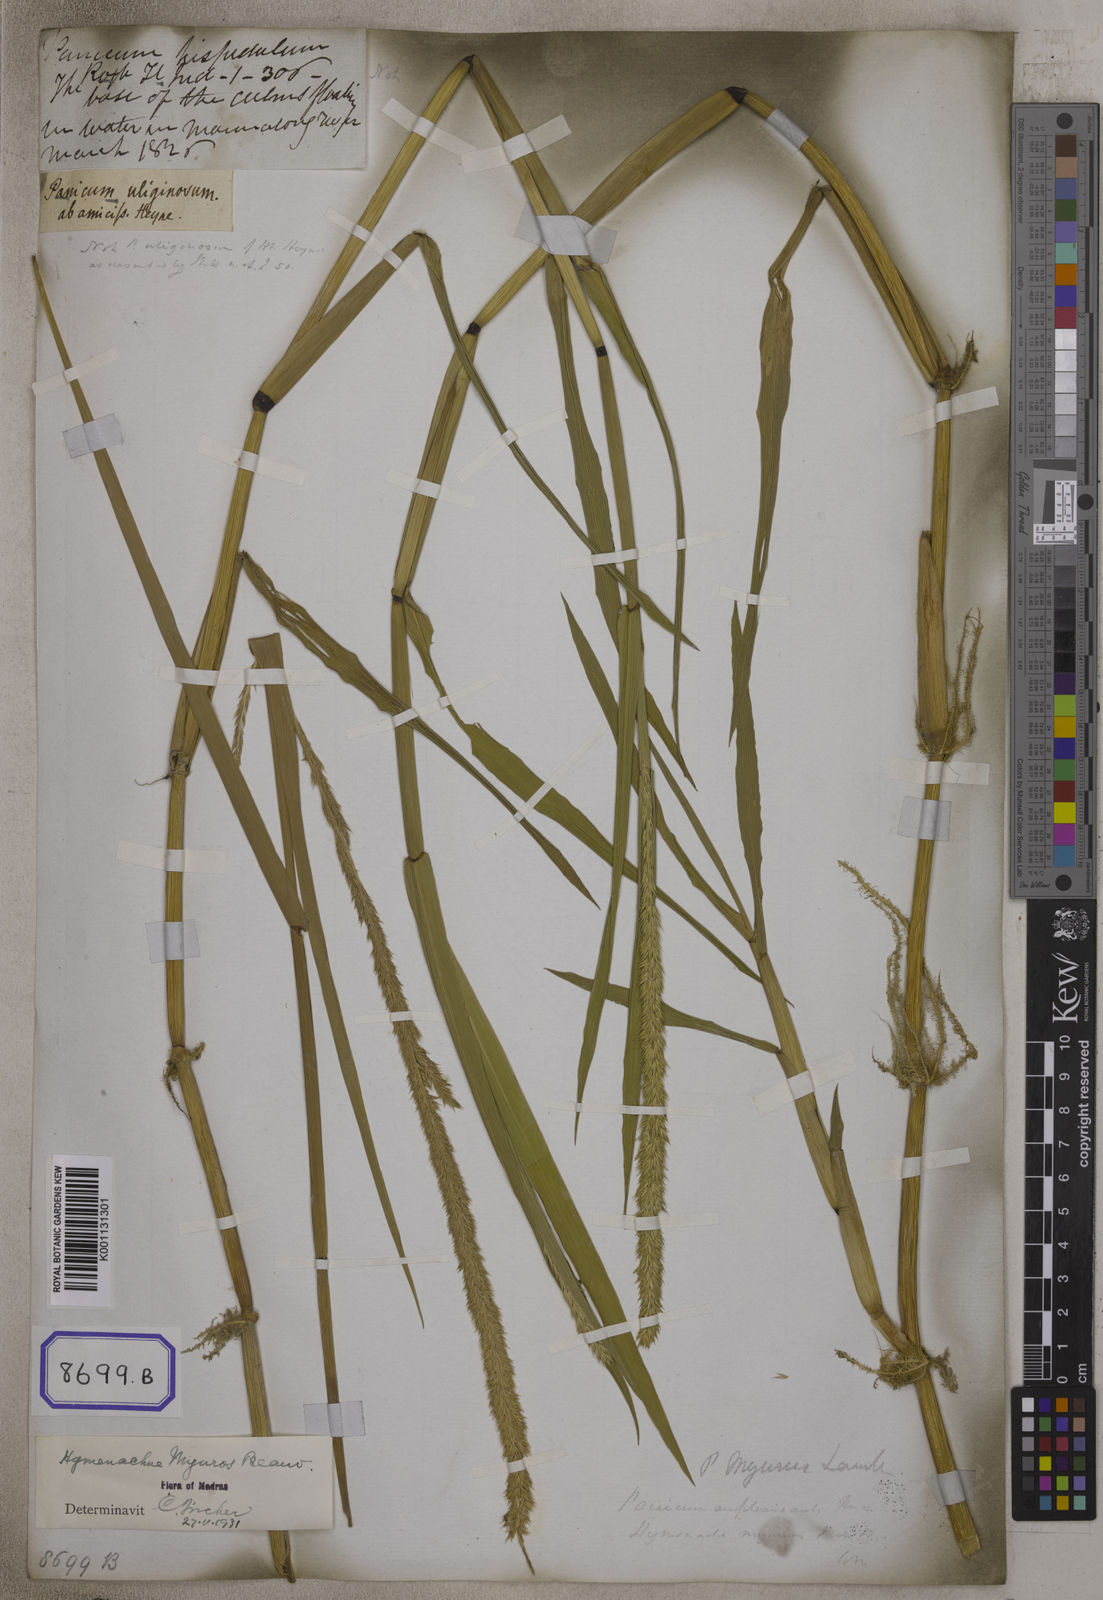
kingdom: Plantae
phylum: Tracheophyta
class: Liliopsida
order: Poales
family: Poaceae
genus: Panicum
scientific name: Panicum
